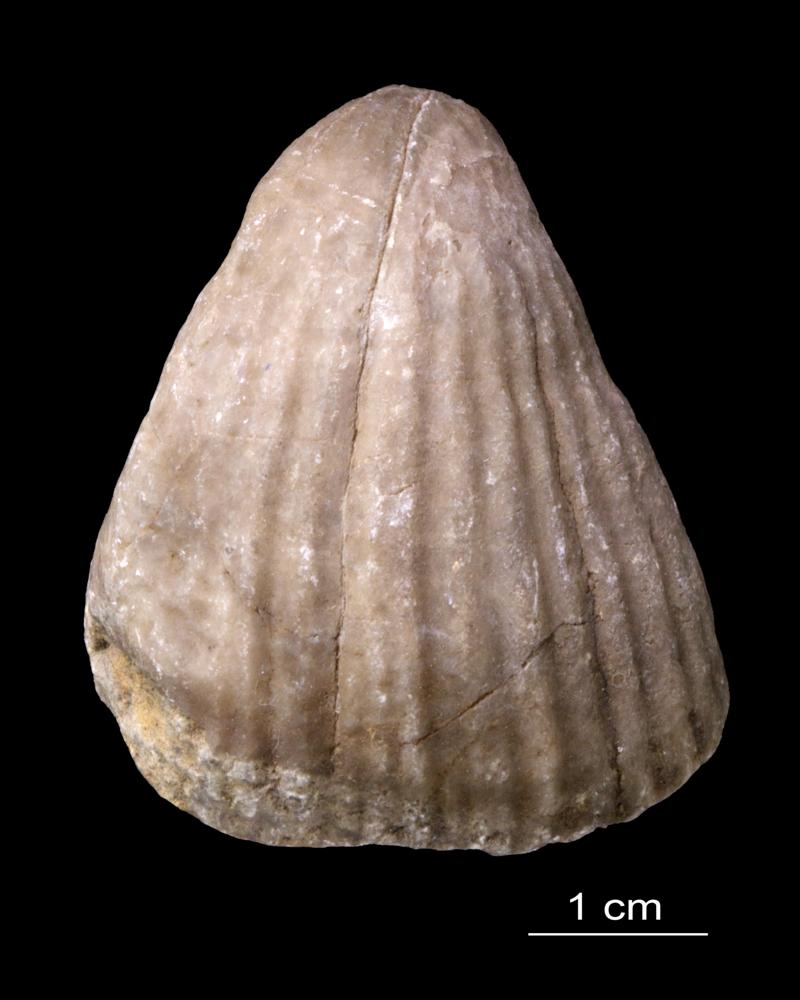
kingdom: Animalia
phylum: Brachiopoda
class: Rhynchonellata
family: Pentameridae
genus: Rhipidium
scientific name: Rhipidium Pentamerus tenuistratus
